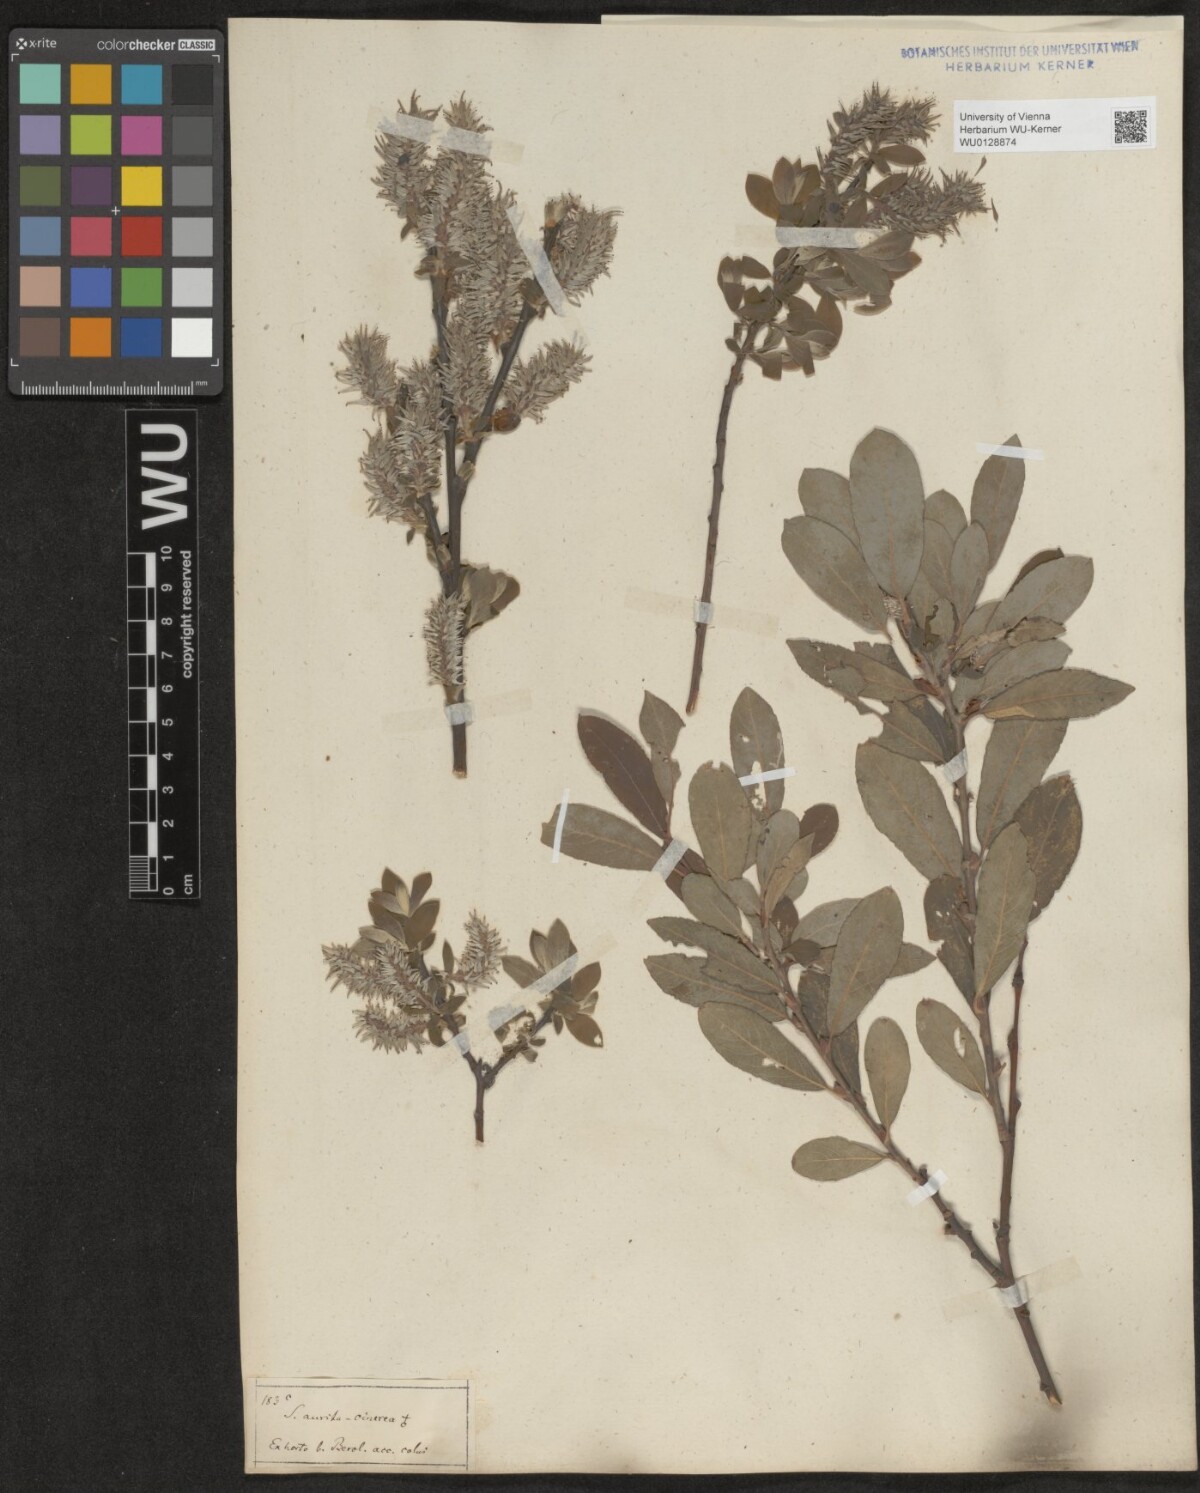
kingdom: Plantae
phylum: Tracheophyta
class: Magnoliopsida
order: Malpighiales
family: Salicaceae
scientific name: Salicaceae
